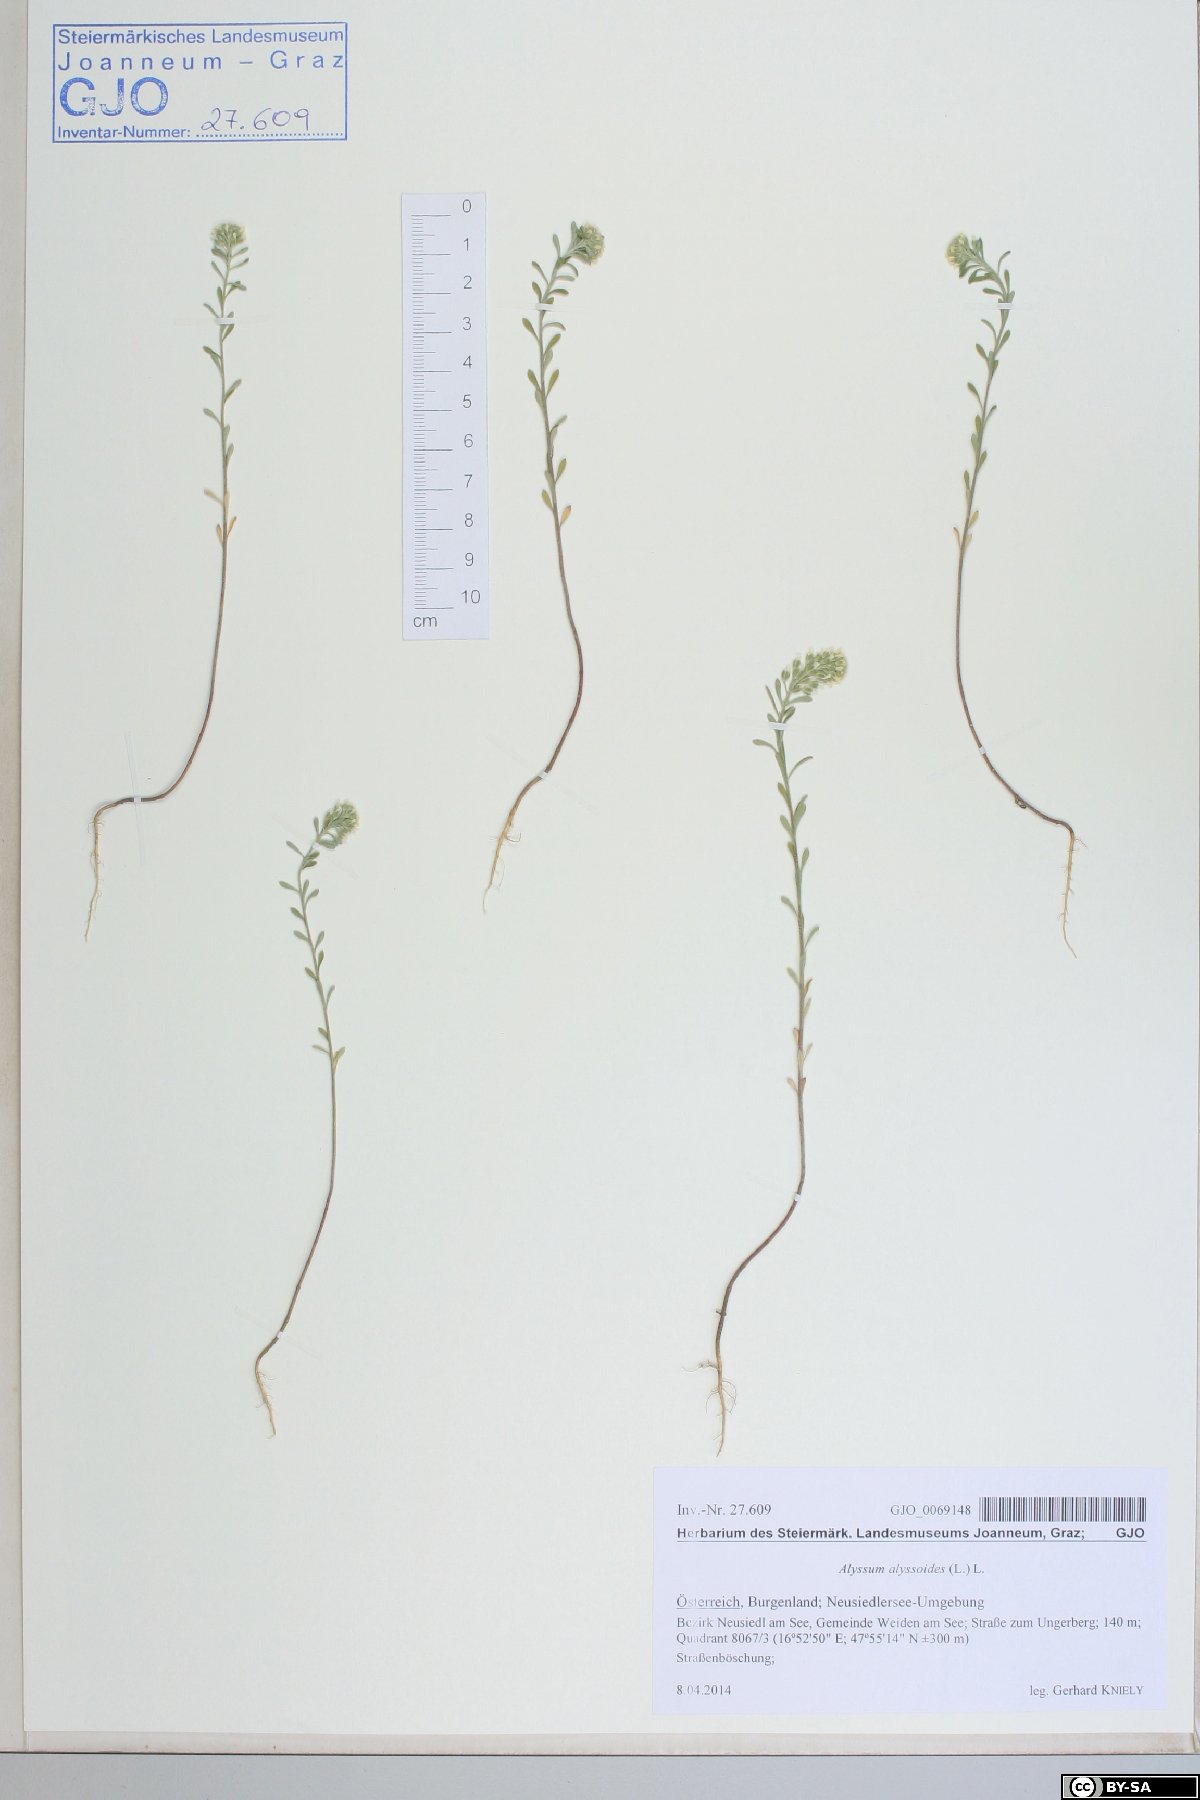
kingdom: Plantae
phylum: Tracheophyta
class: Magnoliopsida
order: Brassicales
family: Brassicaceae
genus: Alyssum
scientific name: Alyssum alyssoides
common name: Small alison
